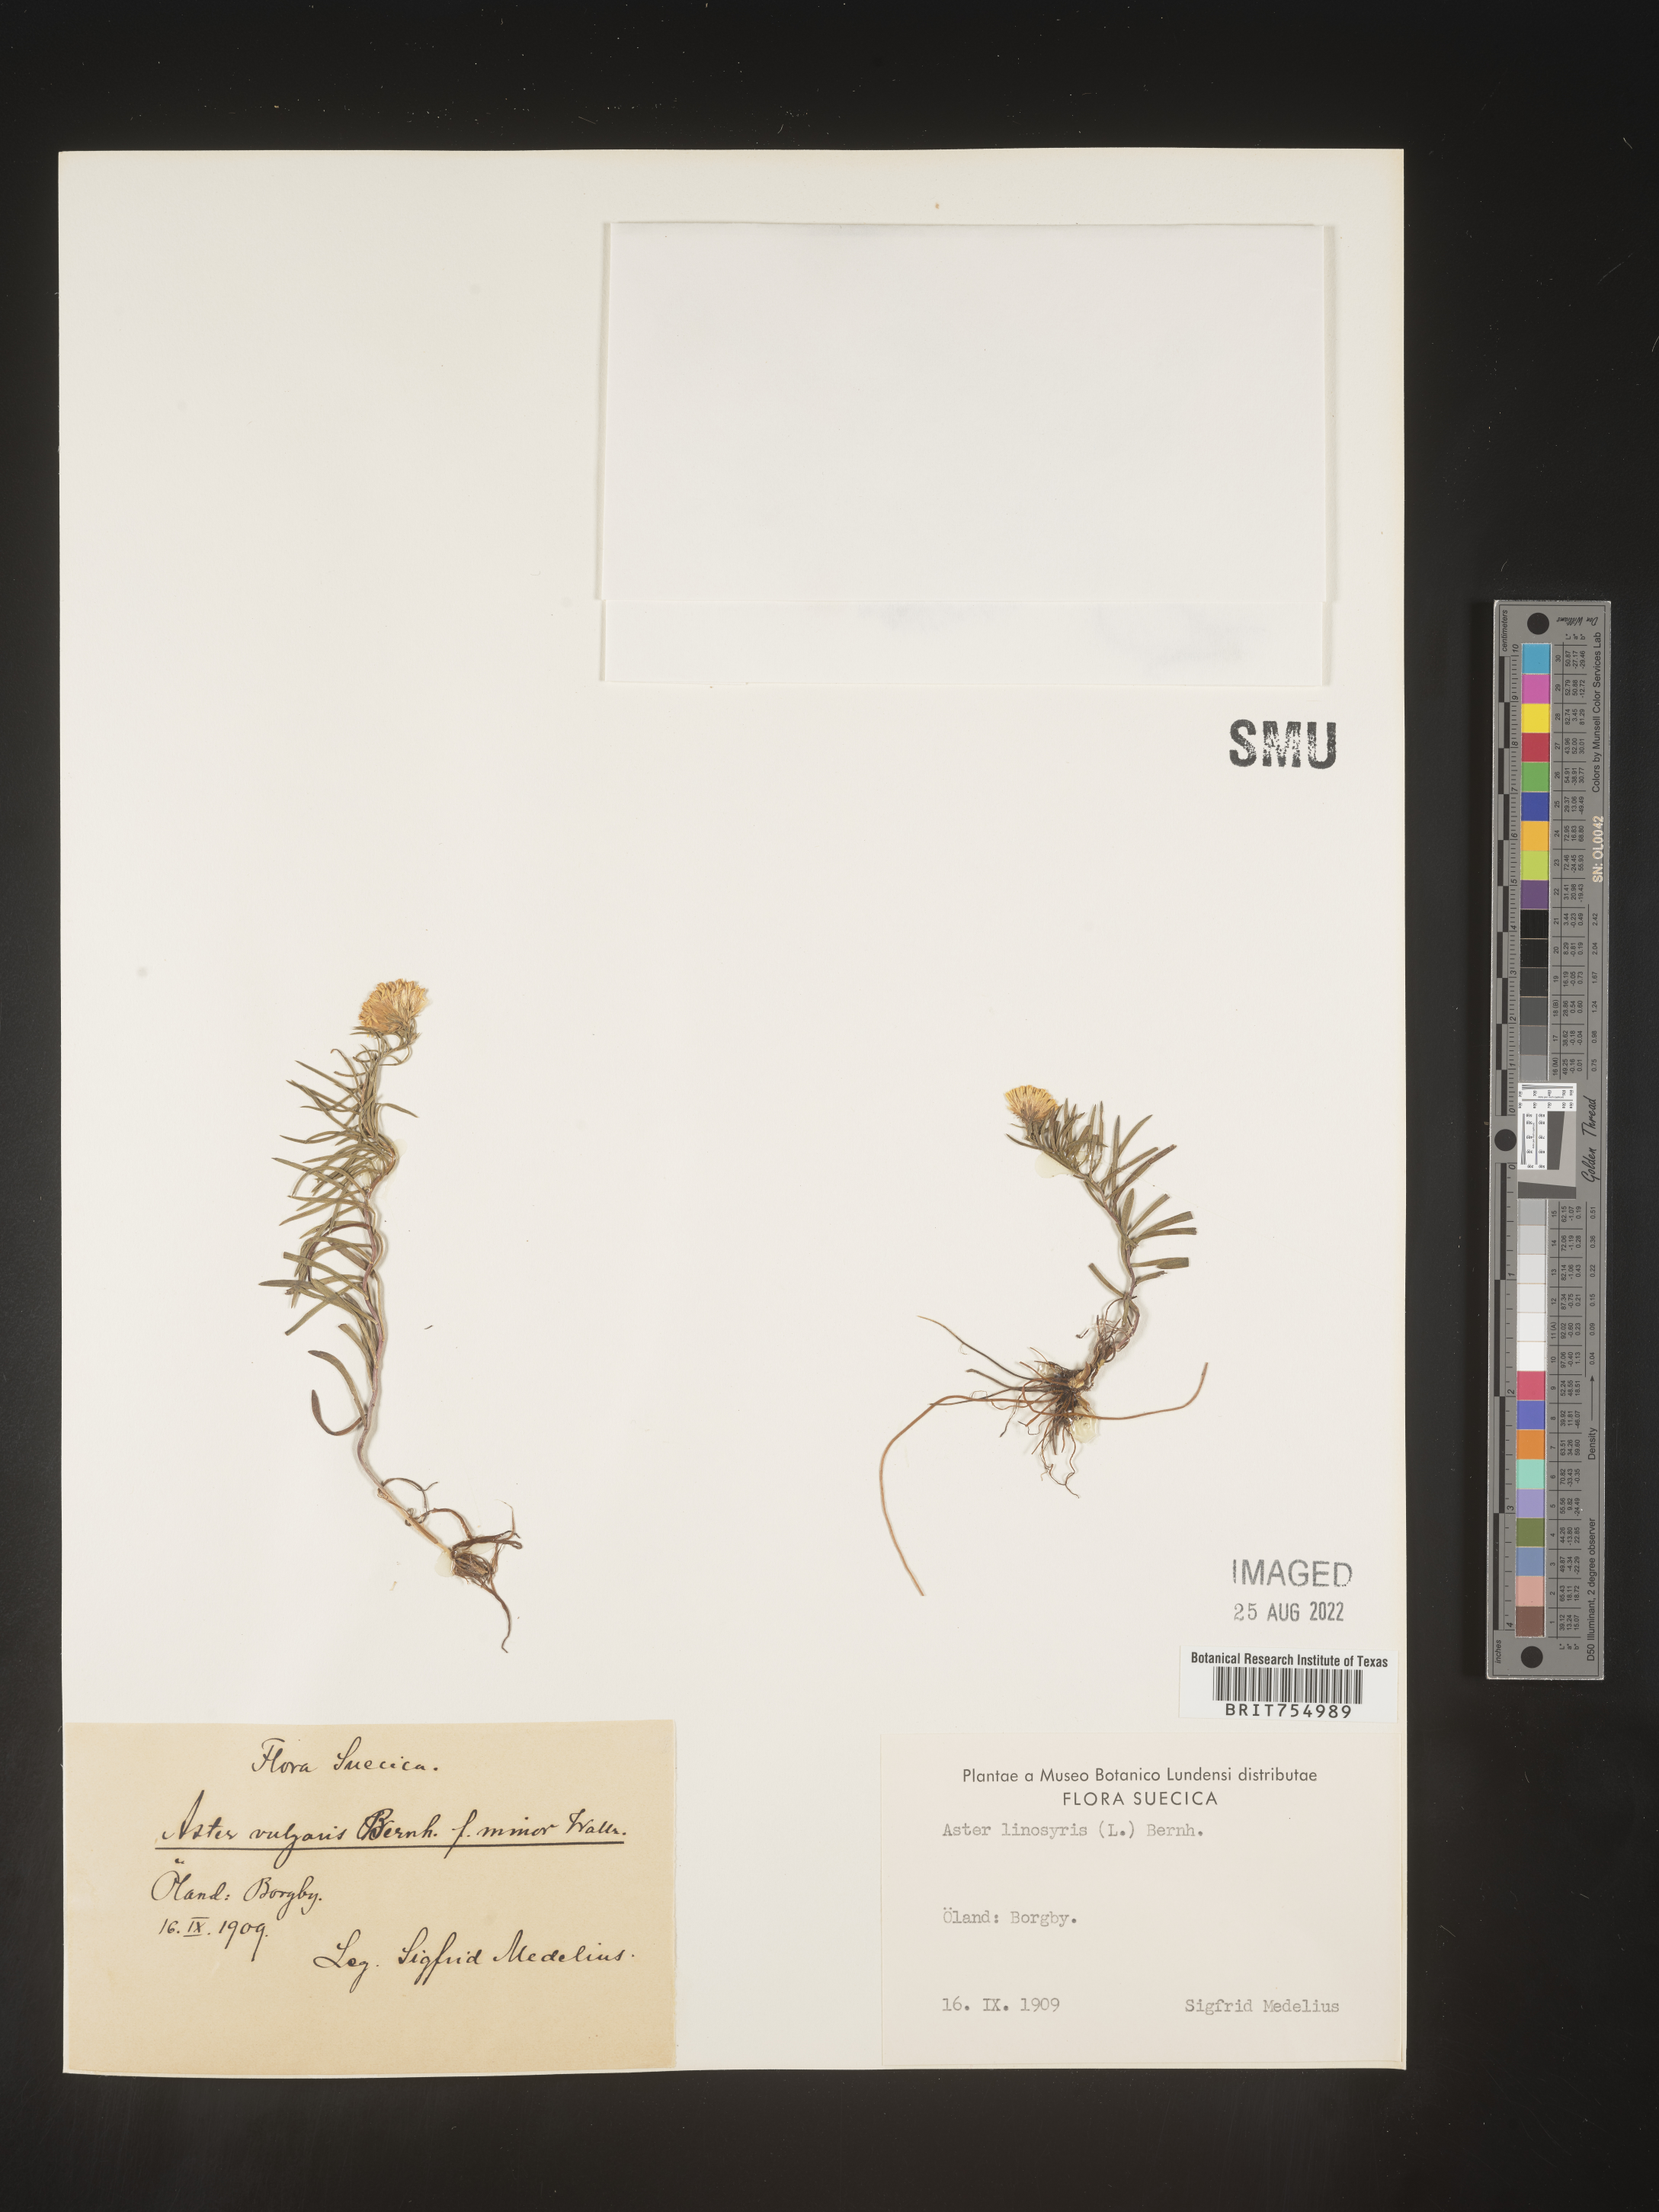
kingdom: Plantae
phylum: Tracheophyta
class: Magnoliopsida
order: Asterales
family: Asteraceae
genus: Symphyotrichum
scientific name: Symphyotrichum
